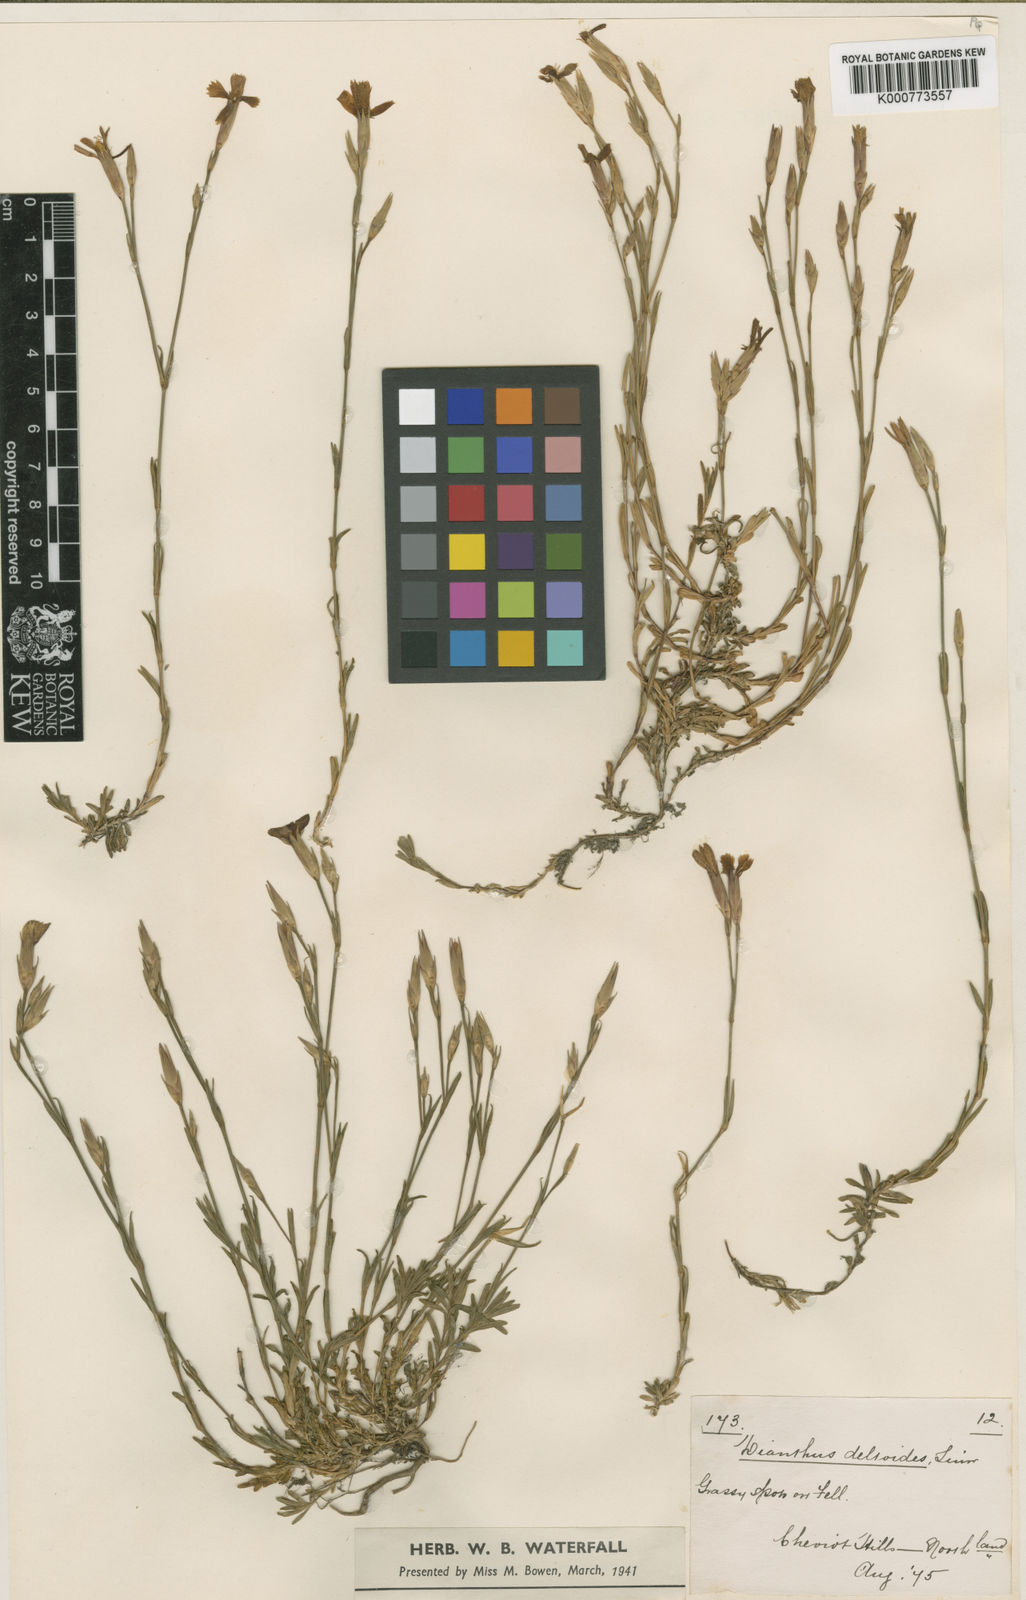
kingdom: Plantae
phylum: Tracheophyta
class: Magnoliopsida
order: Caryophyllales
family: Caryophyllaceae
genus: Dianthus
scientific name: Dianthus deltoides
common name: Maiden pink
